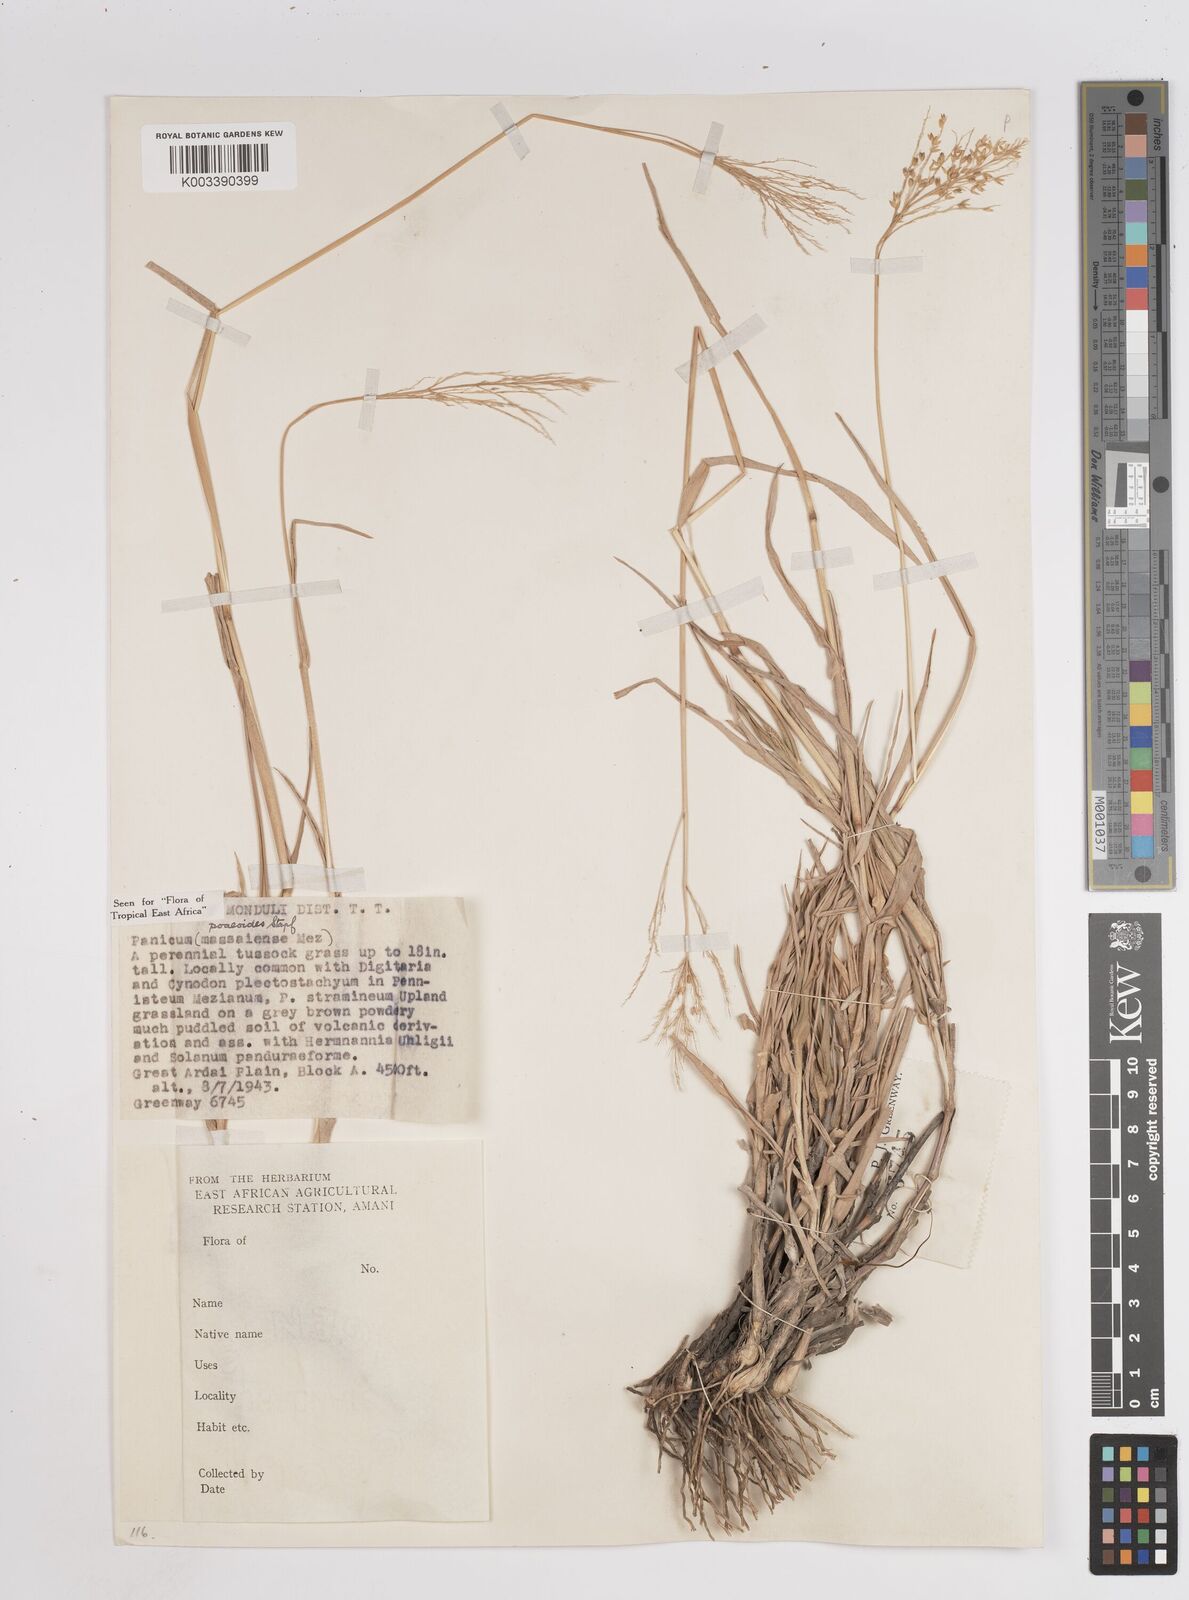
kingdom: Plantae
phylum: Tracheophyta
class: Liliopsida
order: Poales
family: Poaceae
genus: Panicum
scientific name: Panicum
